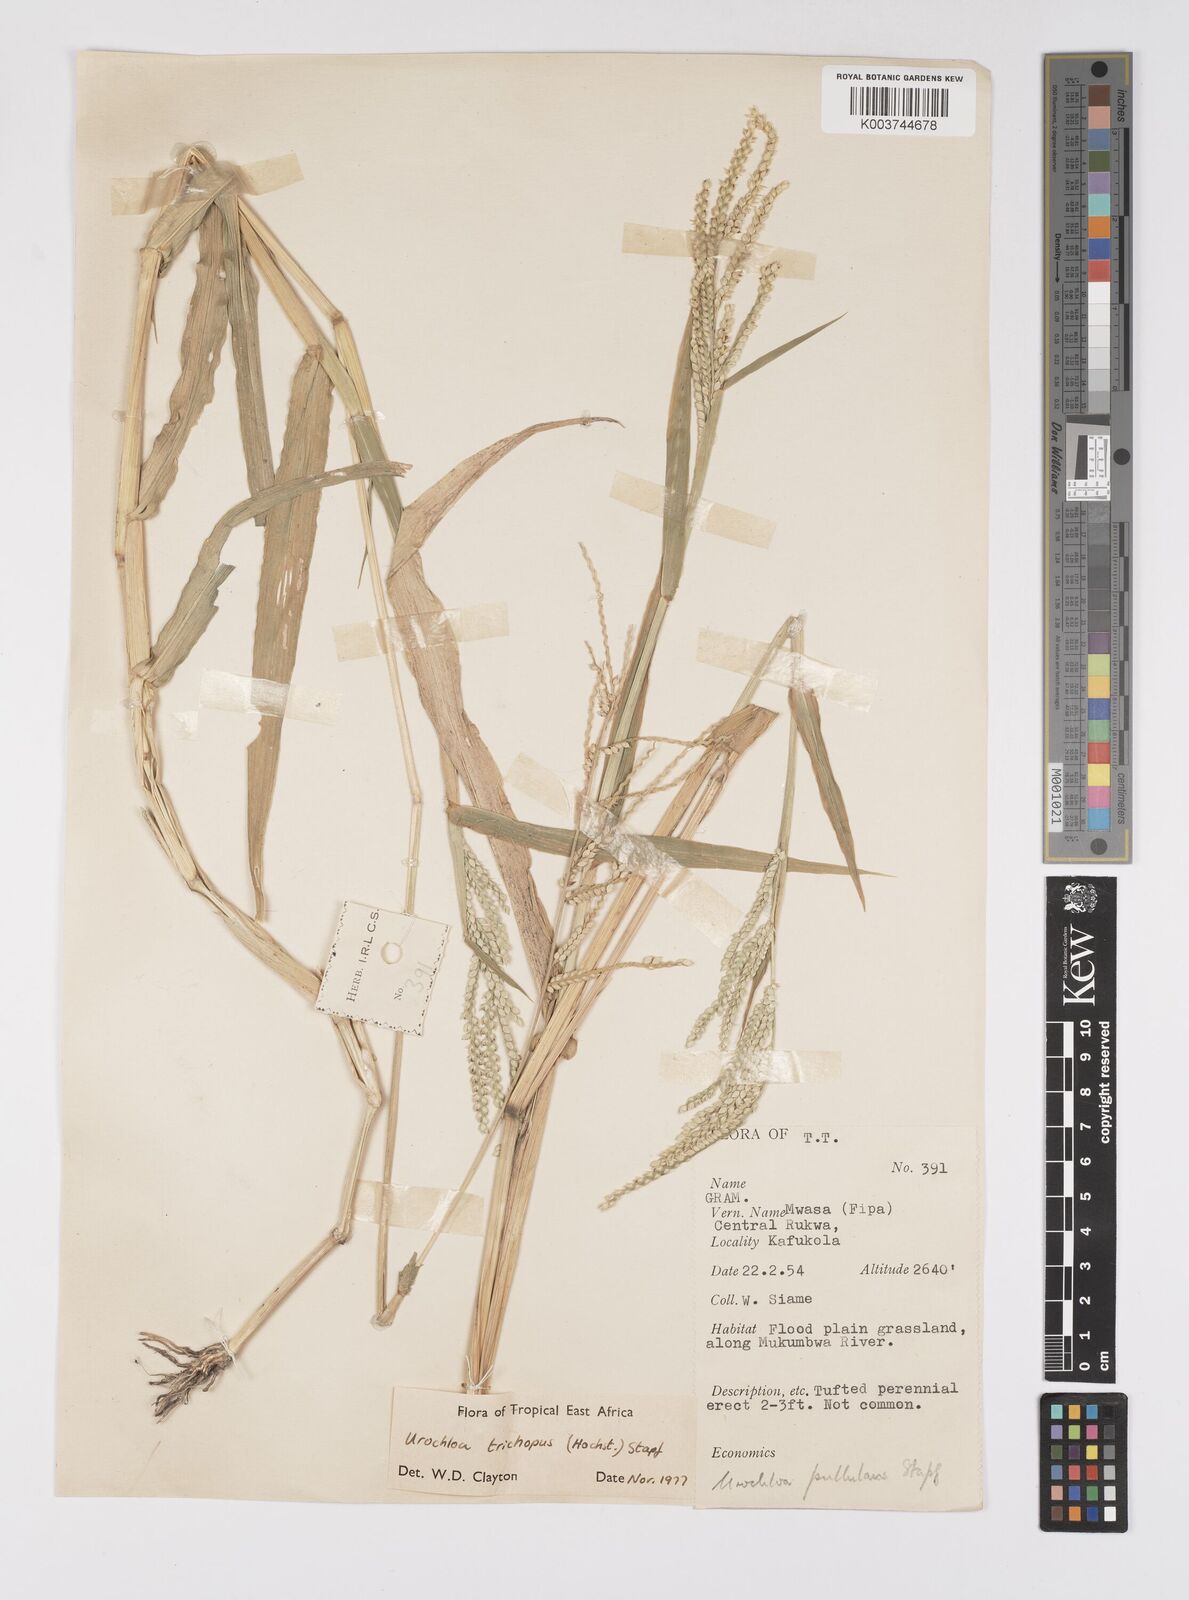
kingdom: Plantae
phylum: Tracheophyta
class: Liliopsida
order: Poales
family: Poaceae
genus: Urochloa
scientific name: Urochloa trichopus
